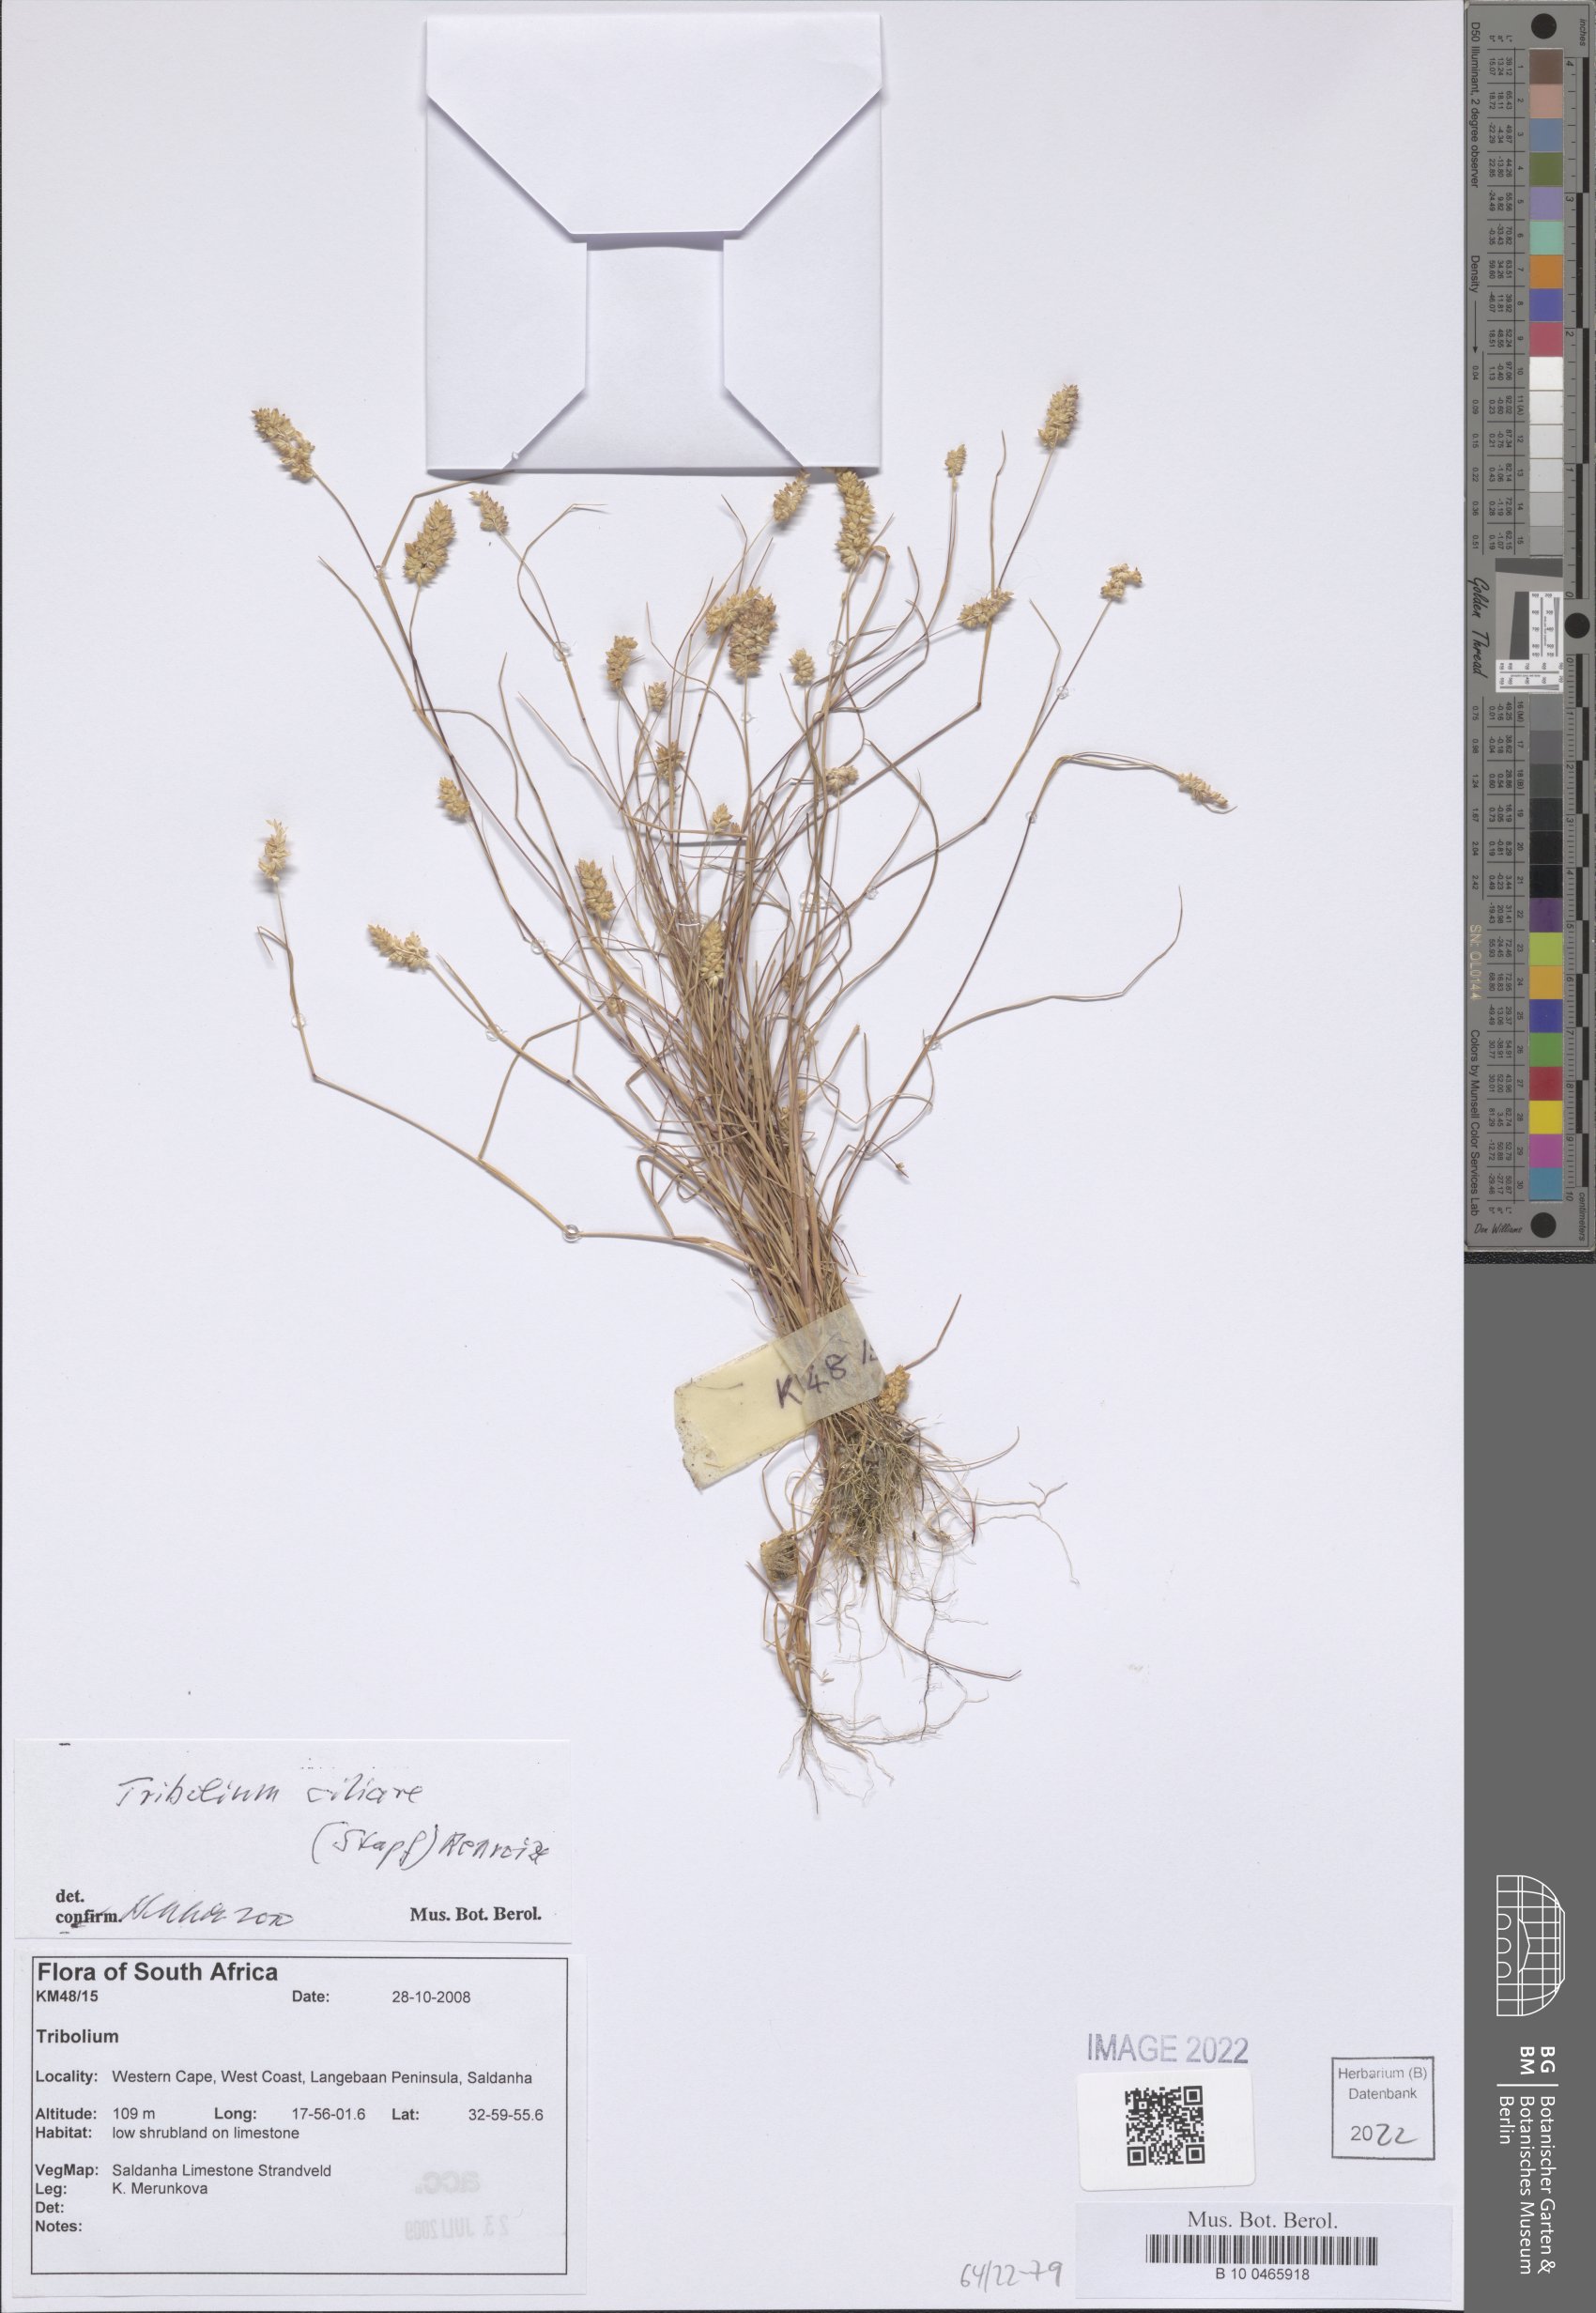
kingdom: Plantae
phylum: Tracheophyta
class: Liliopsida
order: Poales
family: Poaceae
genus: Tribolium
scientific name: Tribolium ciliare
